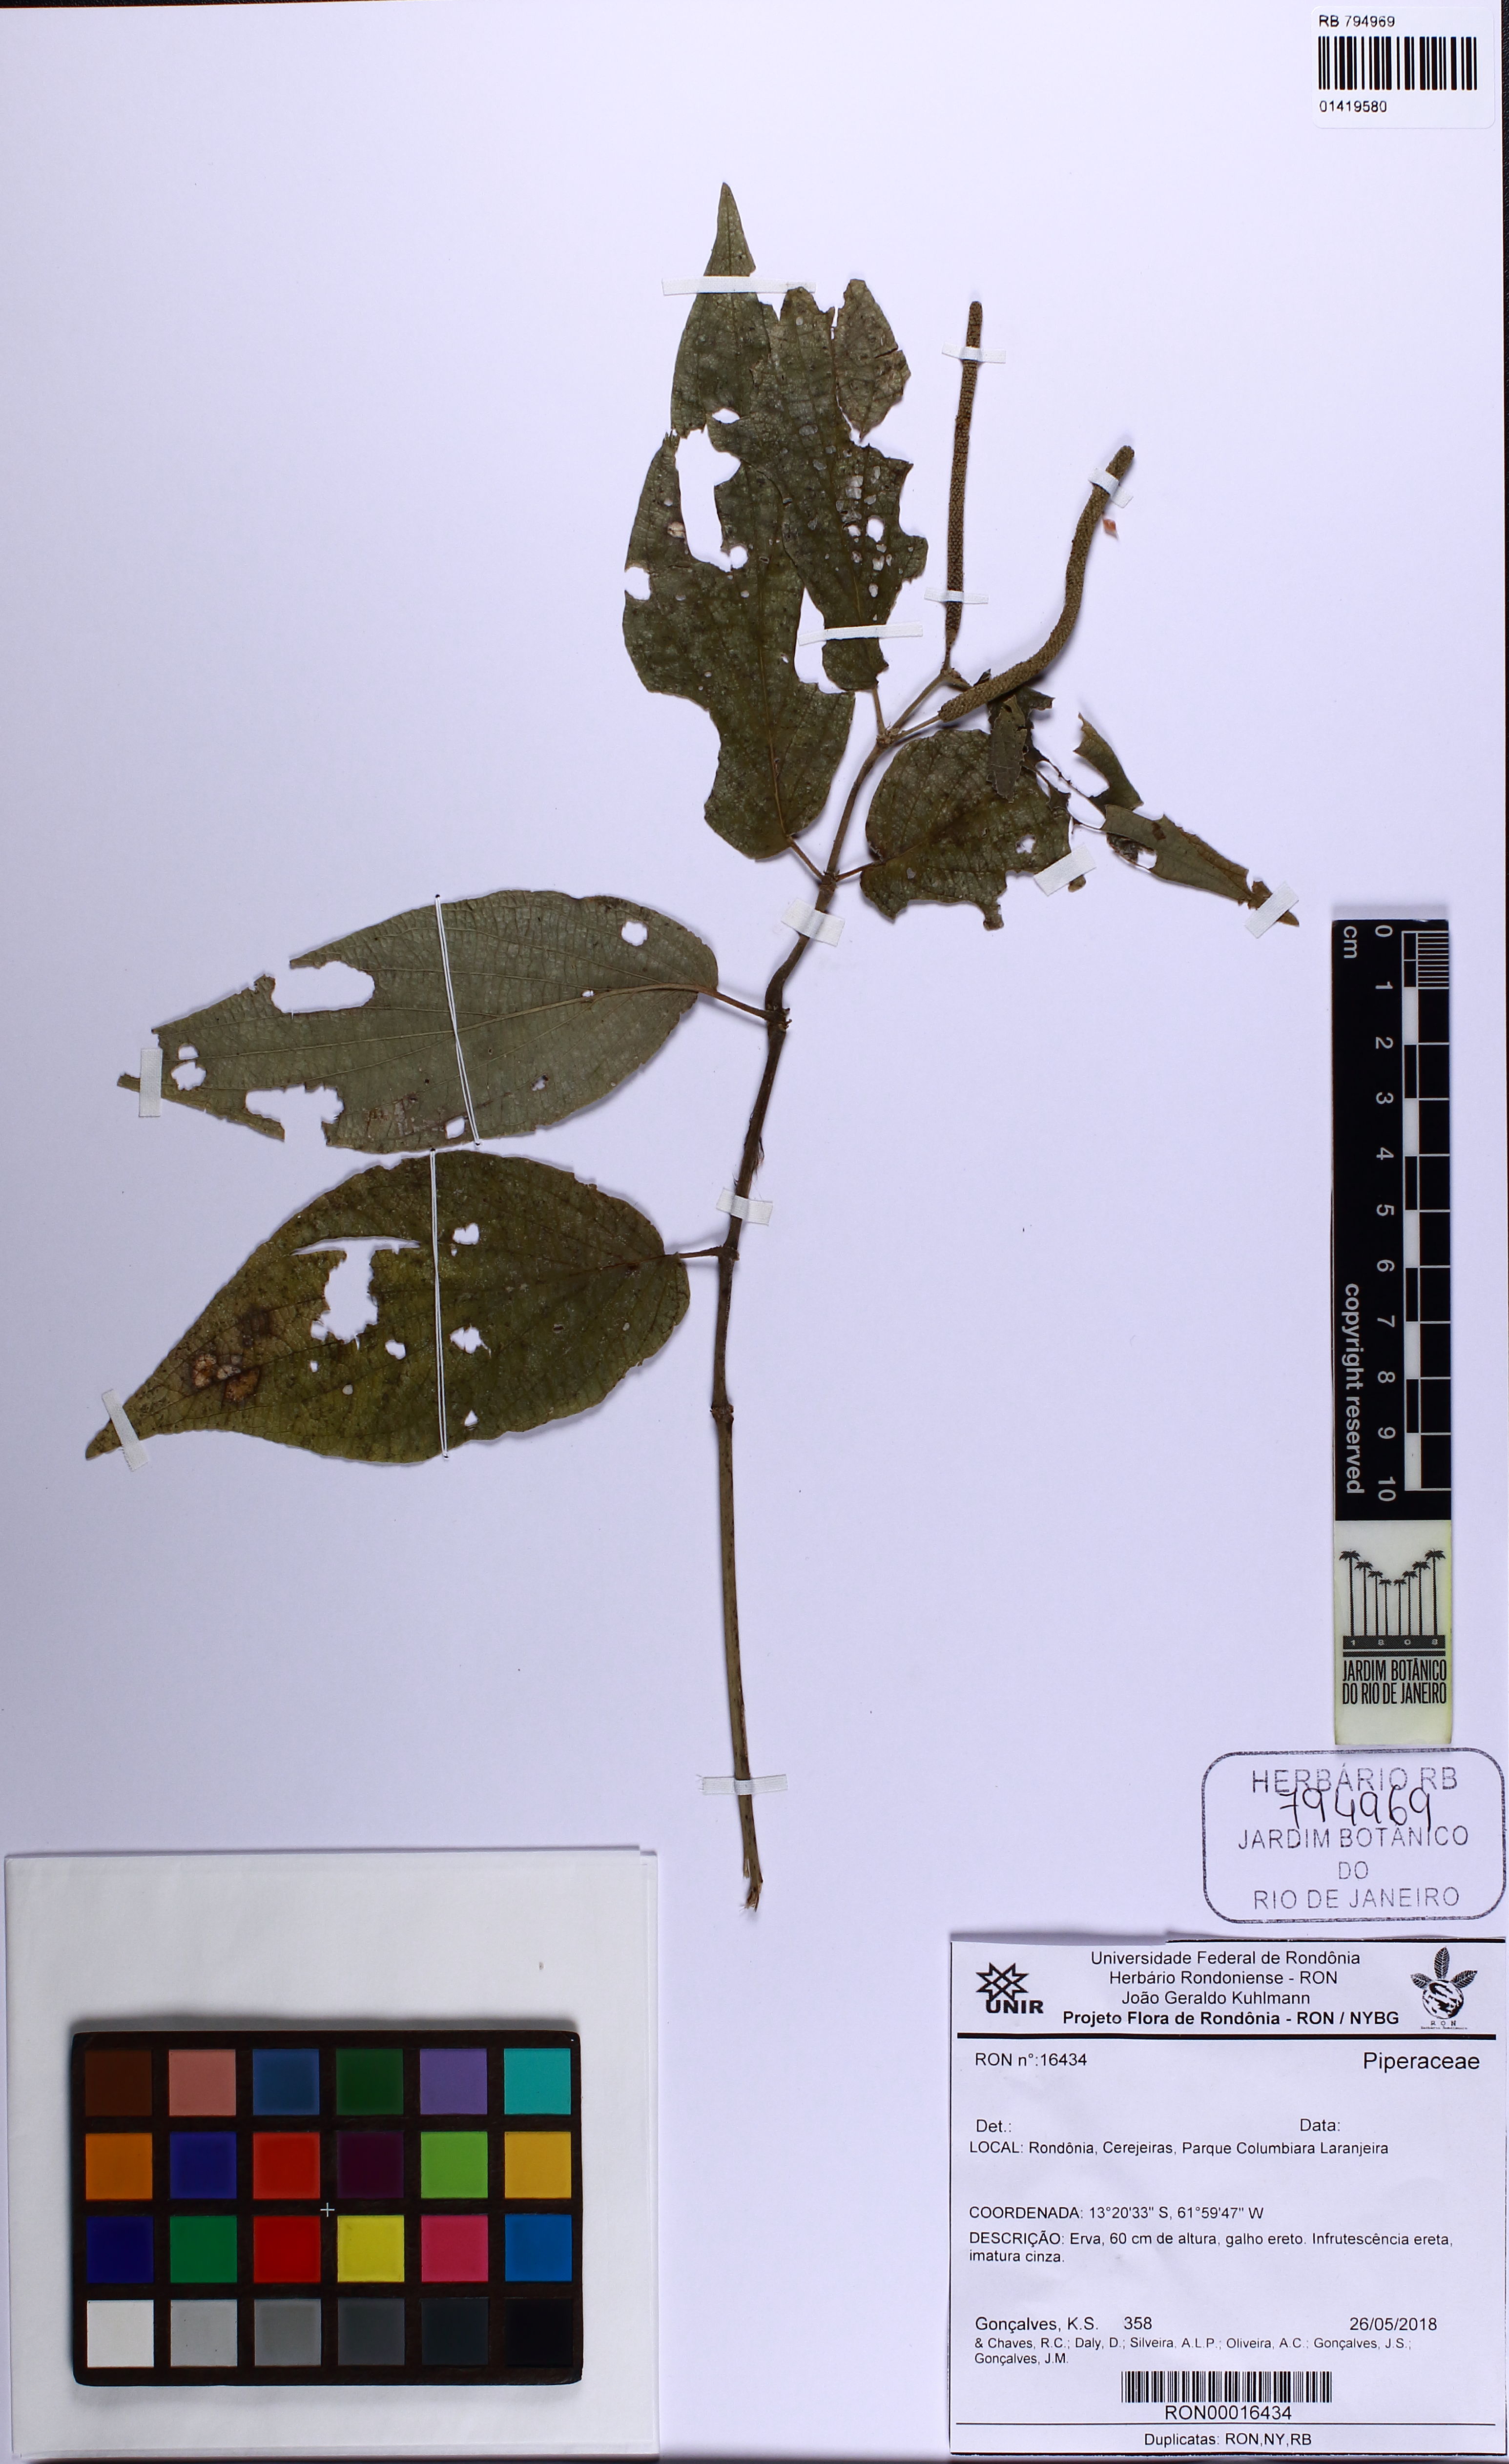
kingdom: Plantae
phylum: Tracheophyta
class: Magnoliopsida
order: Piperales
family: Piperaceae
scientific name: Piperaceae
